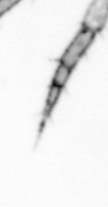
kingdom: Animalia
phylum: Annelida
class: Polychaeta
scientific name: Polychaeta
